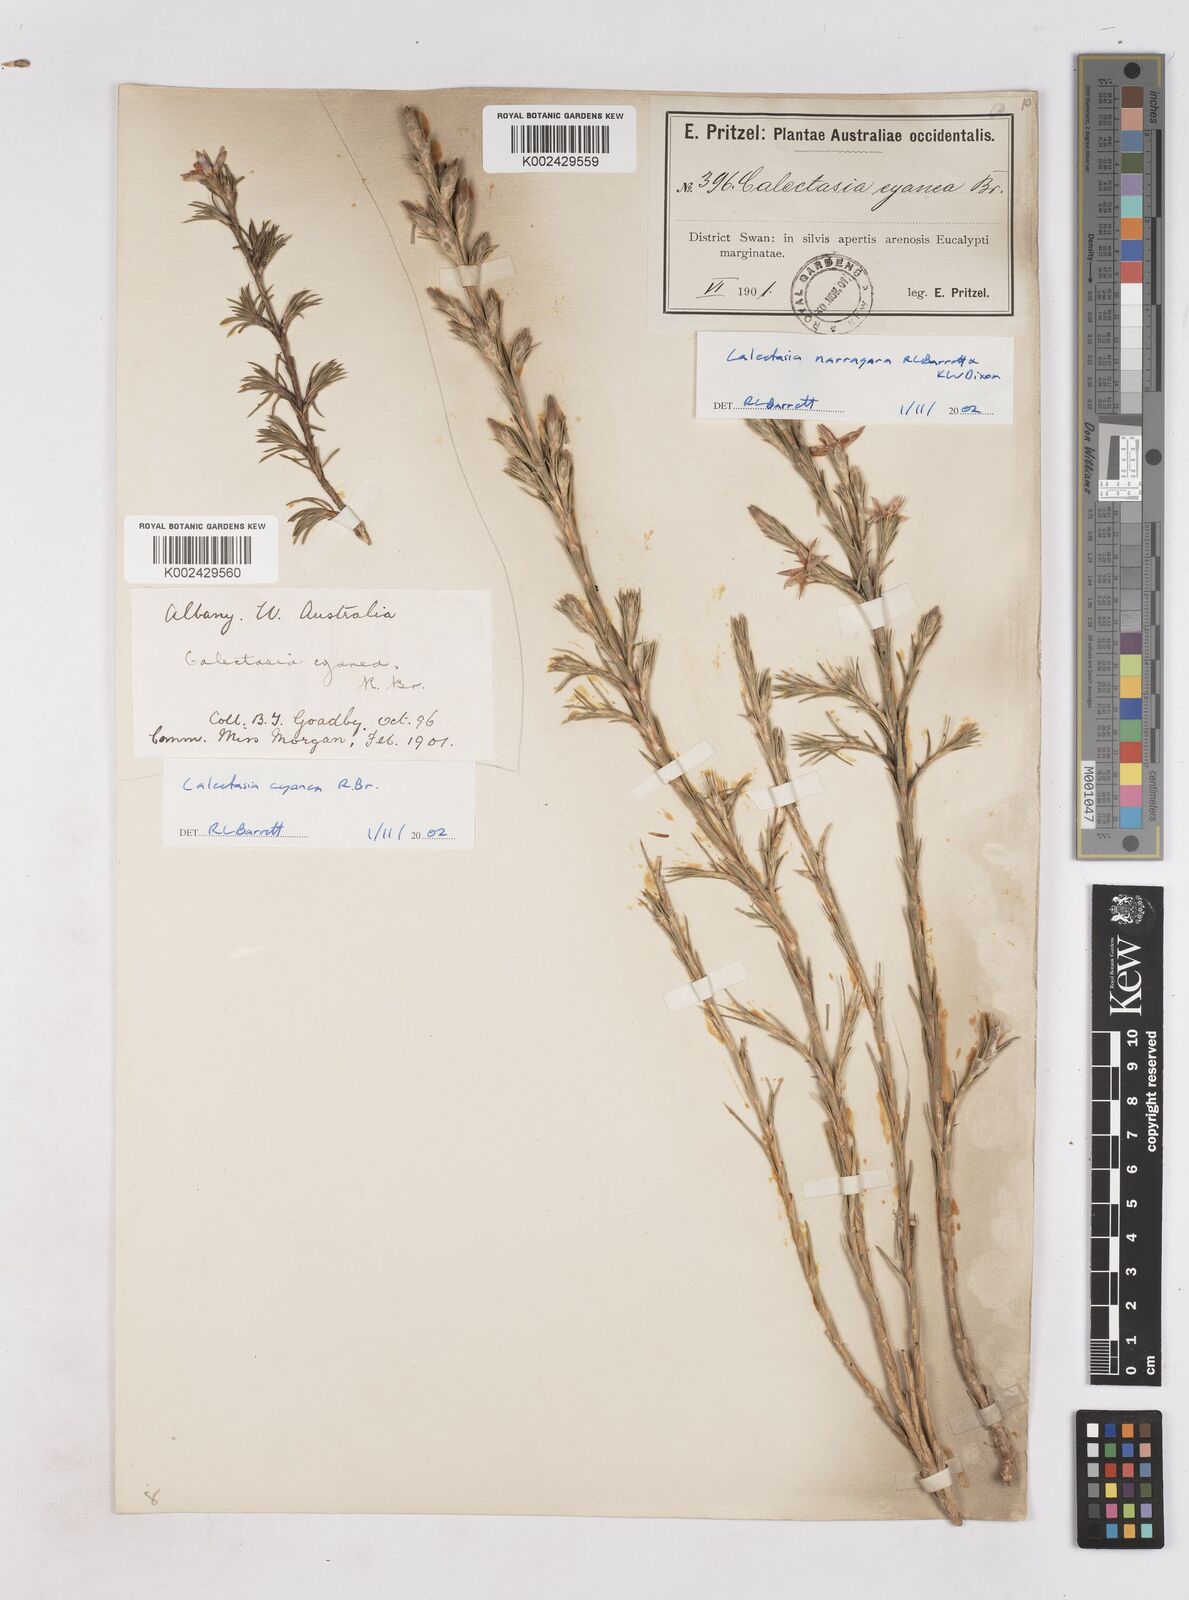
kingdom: Plantae
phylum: Tracheophyta
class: Liliopsida
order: Arecales
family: Dasypogonaceae
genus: Calectasia
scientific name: Calectasia cyanea
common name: Blue tinsel-lily
